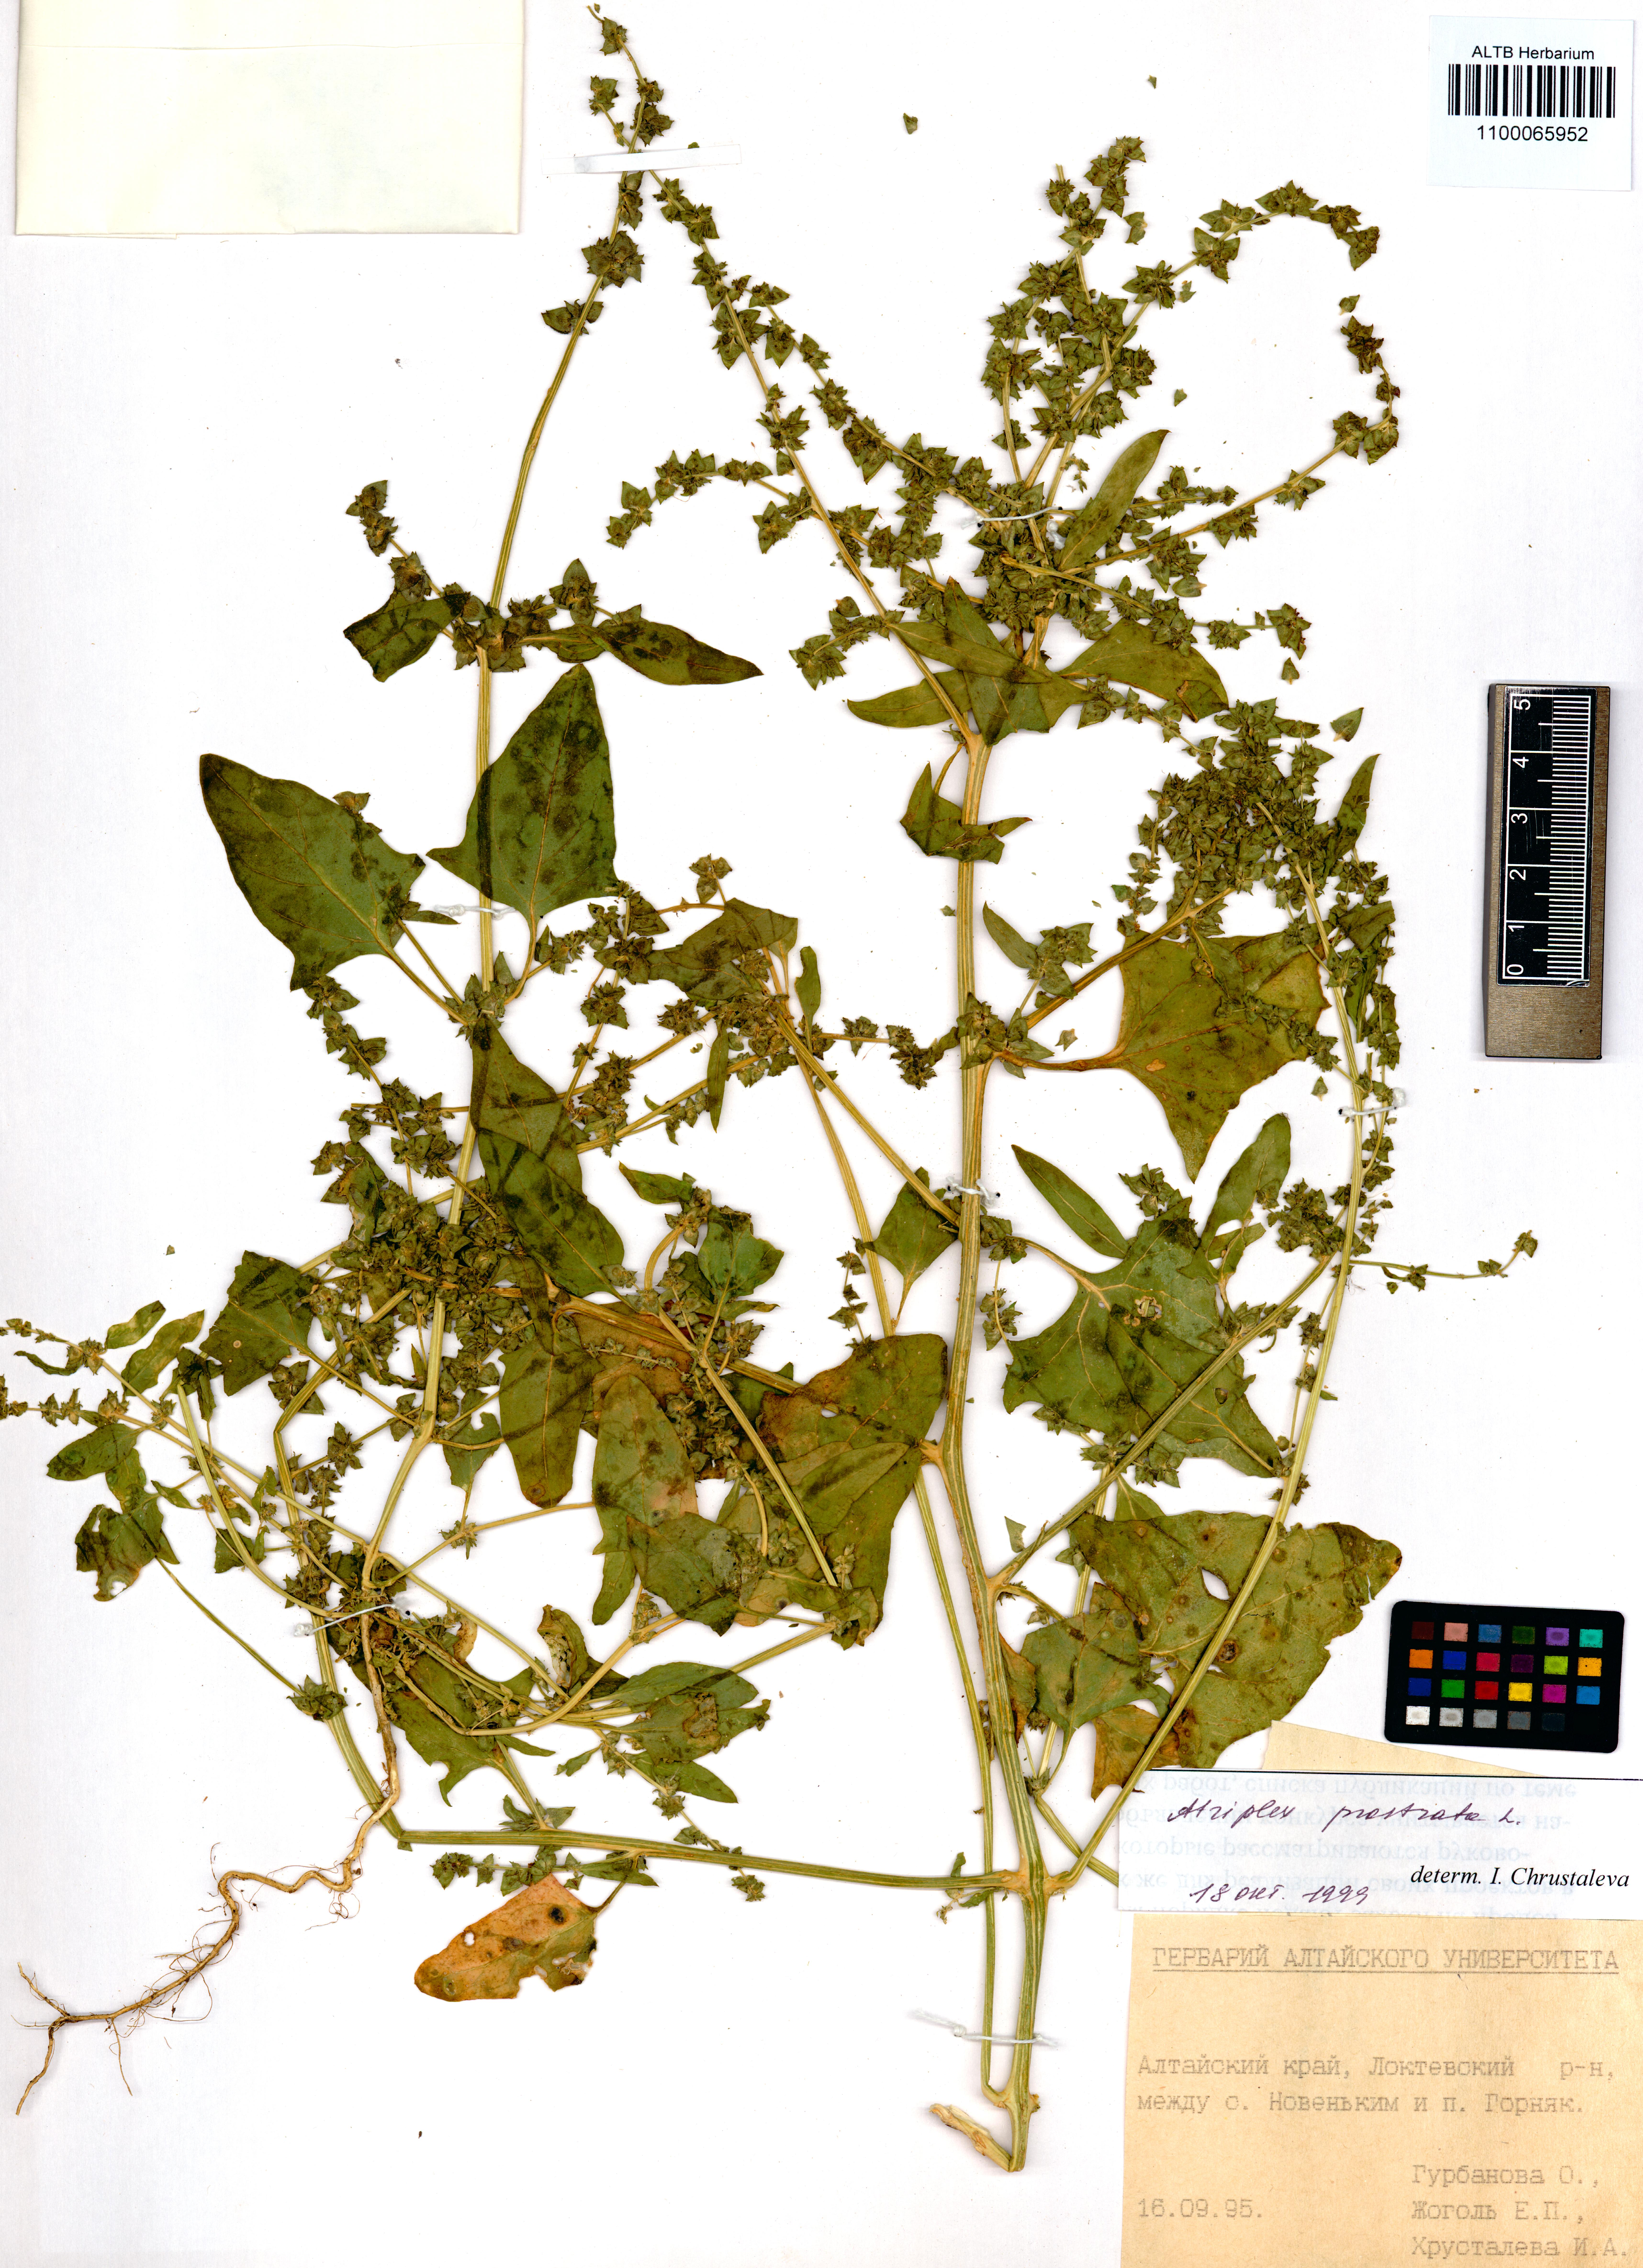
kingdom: Plantae
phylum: Tracheophyta
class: Magnoliopsida
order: Caryophyllales
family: Amaranthaceae
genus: Atriplex
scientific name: Atriplex prostrata
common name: Spear-leaved orache
